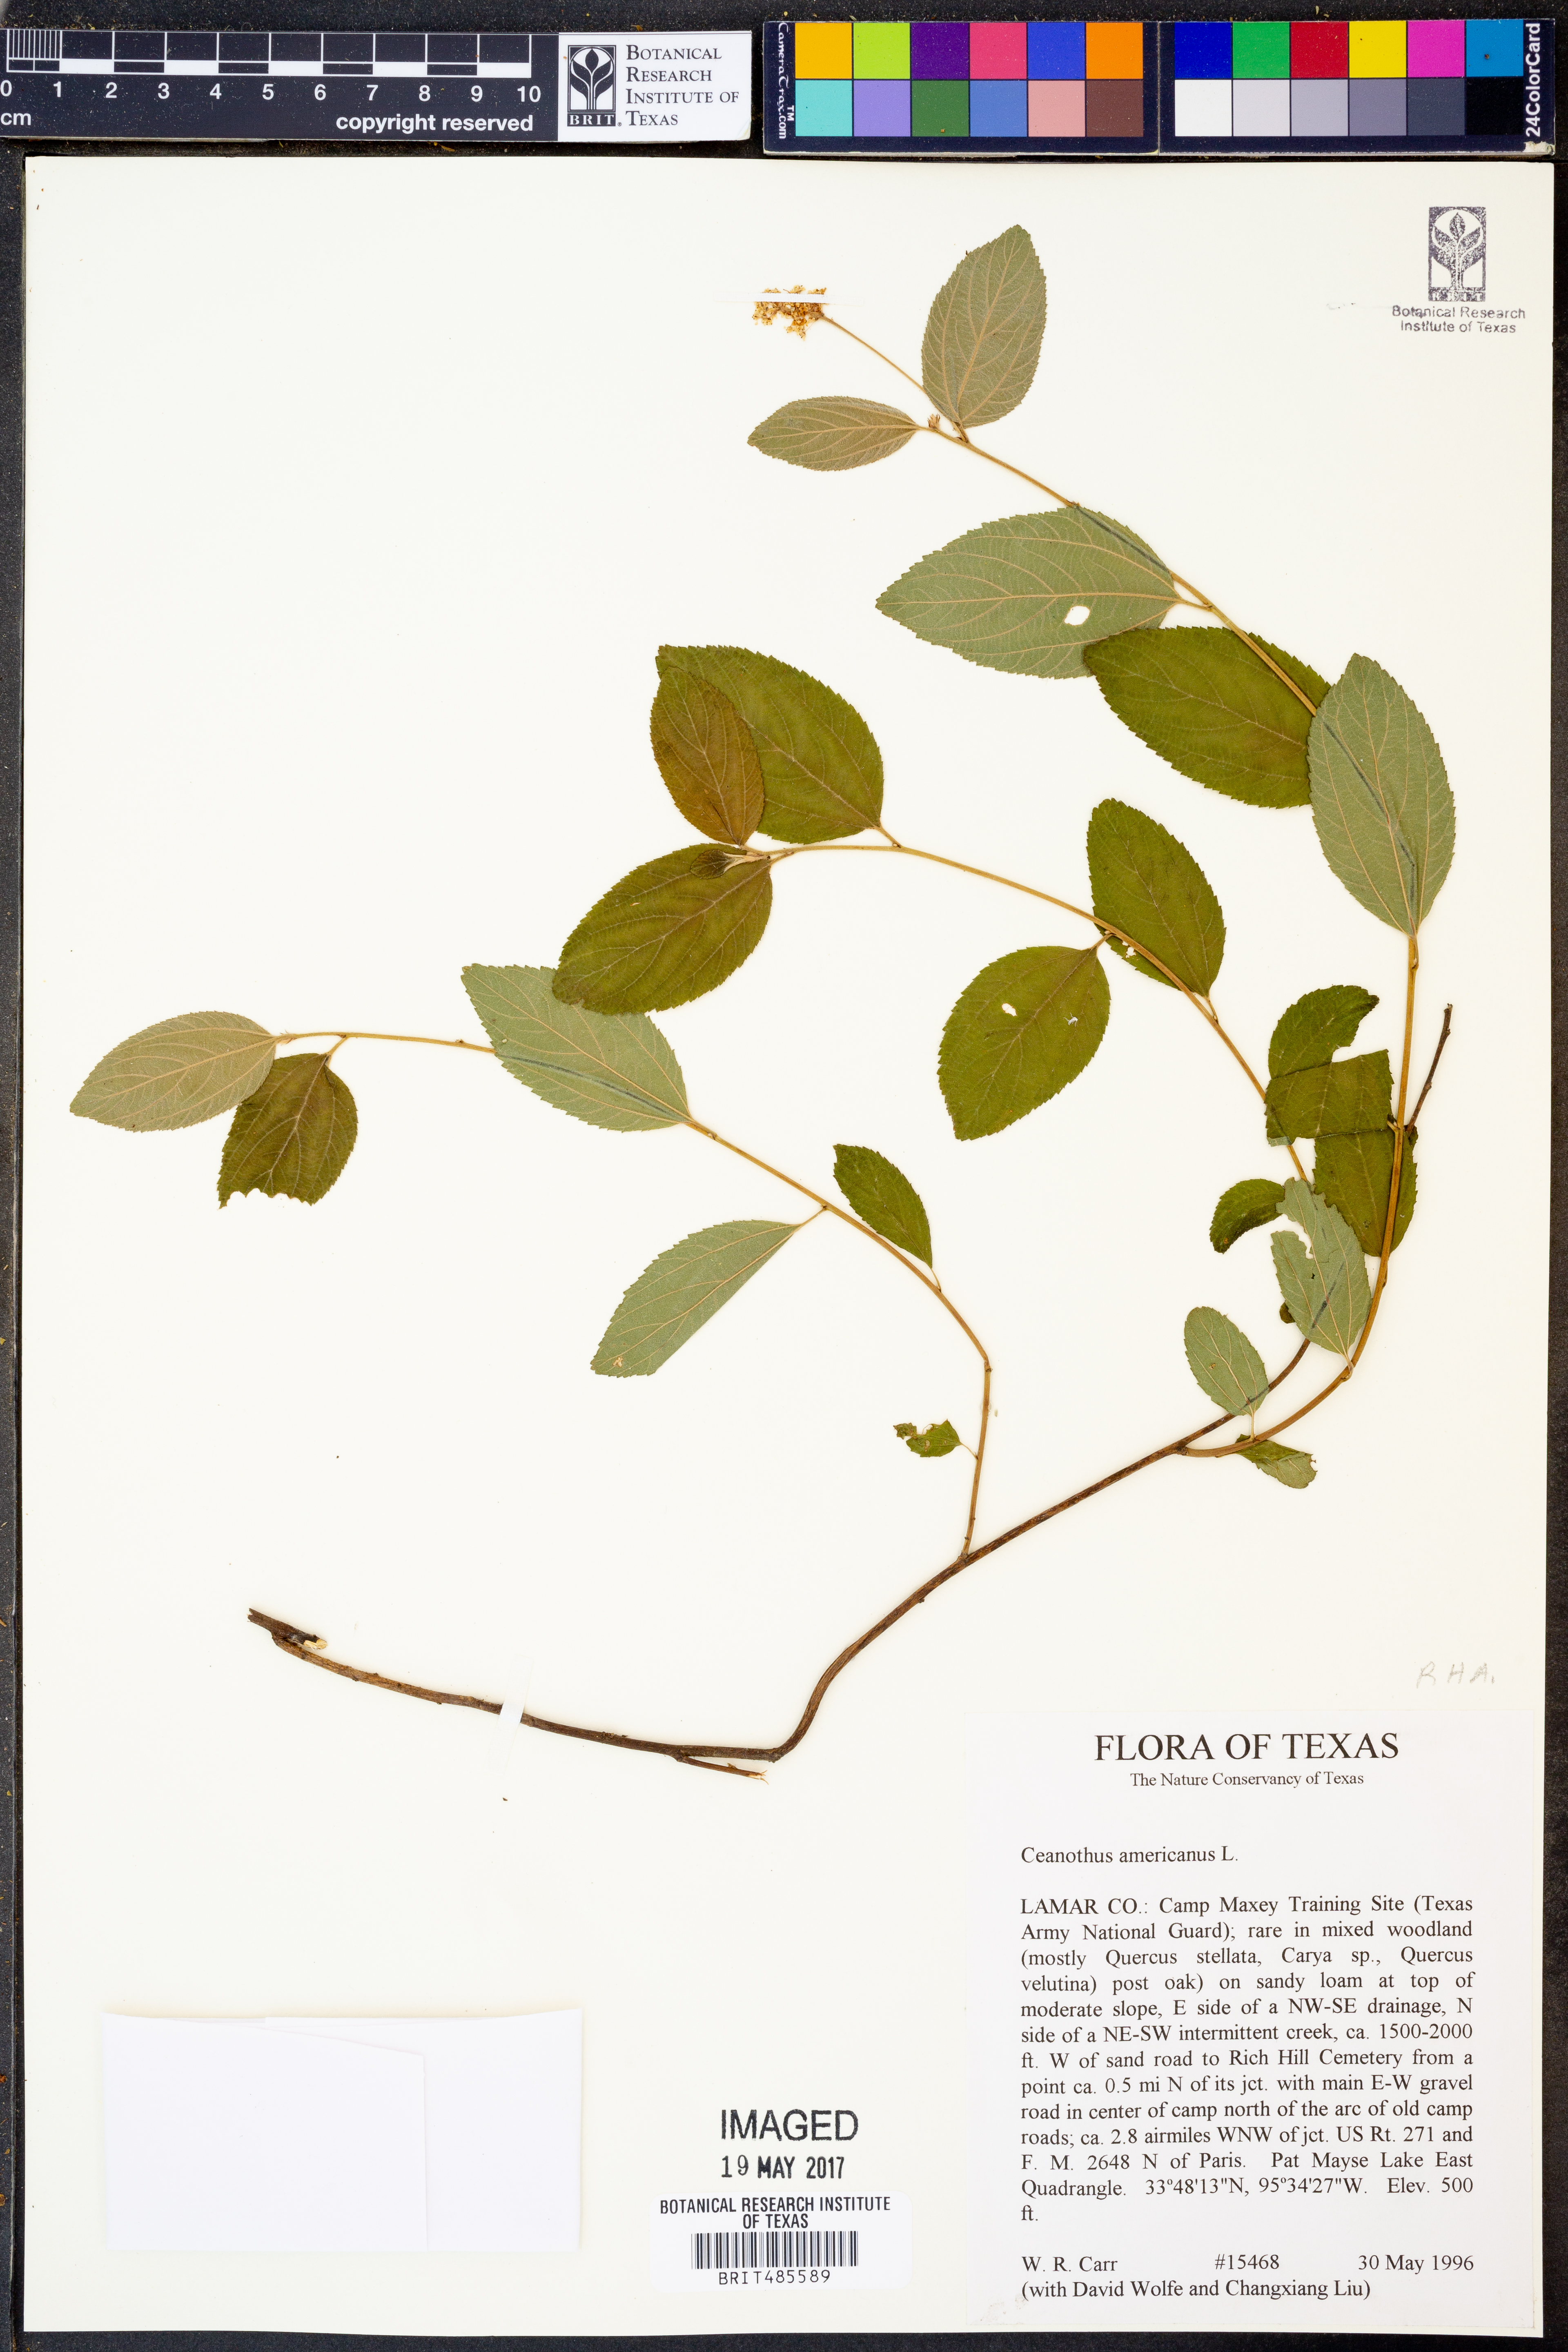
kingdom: Plantae
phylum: Tracheophyta
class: Magnoliopsida
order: Rosales
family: Rhamnaceae
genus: Ceanothus
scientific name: Ceanothus americanus
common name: Redroot
